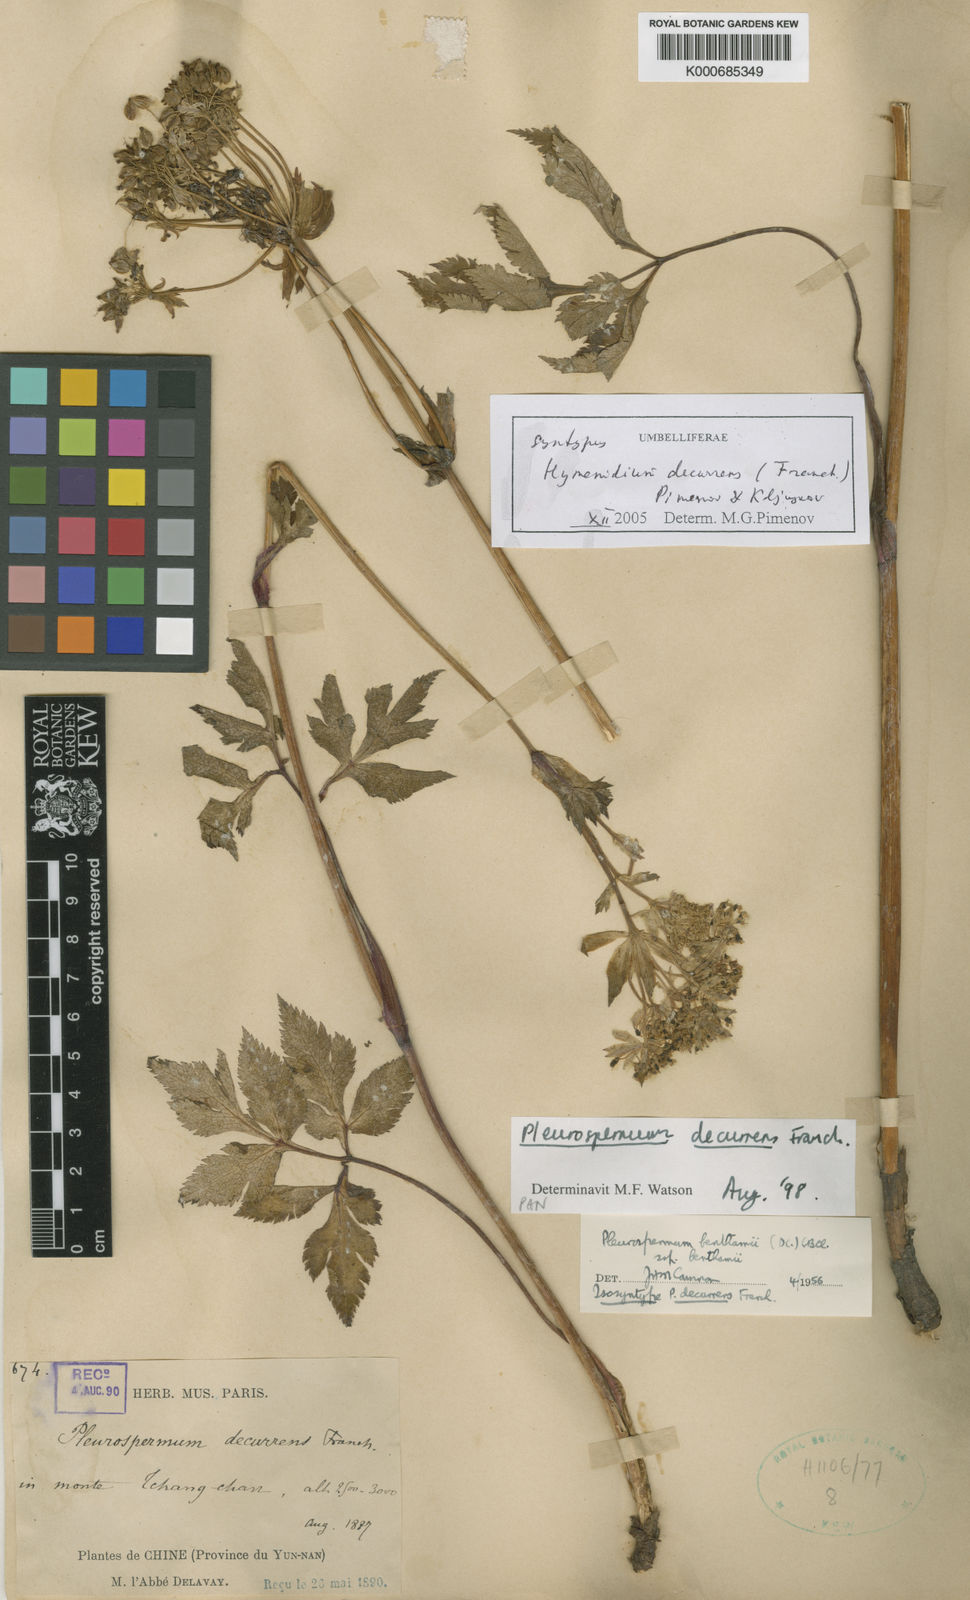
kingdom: Plantae
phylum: Tracheophyta
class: Magnoliopsida
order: Apiales
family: Apiaceae
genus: Hymenidium
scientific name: Hymenidium decurrens
